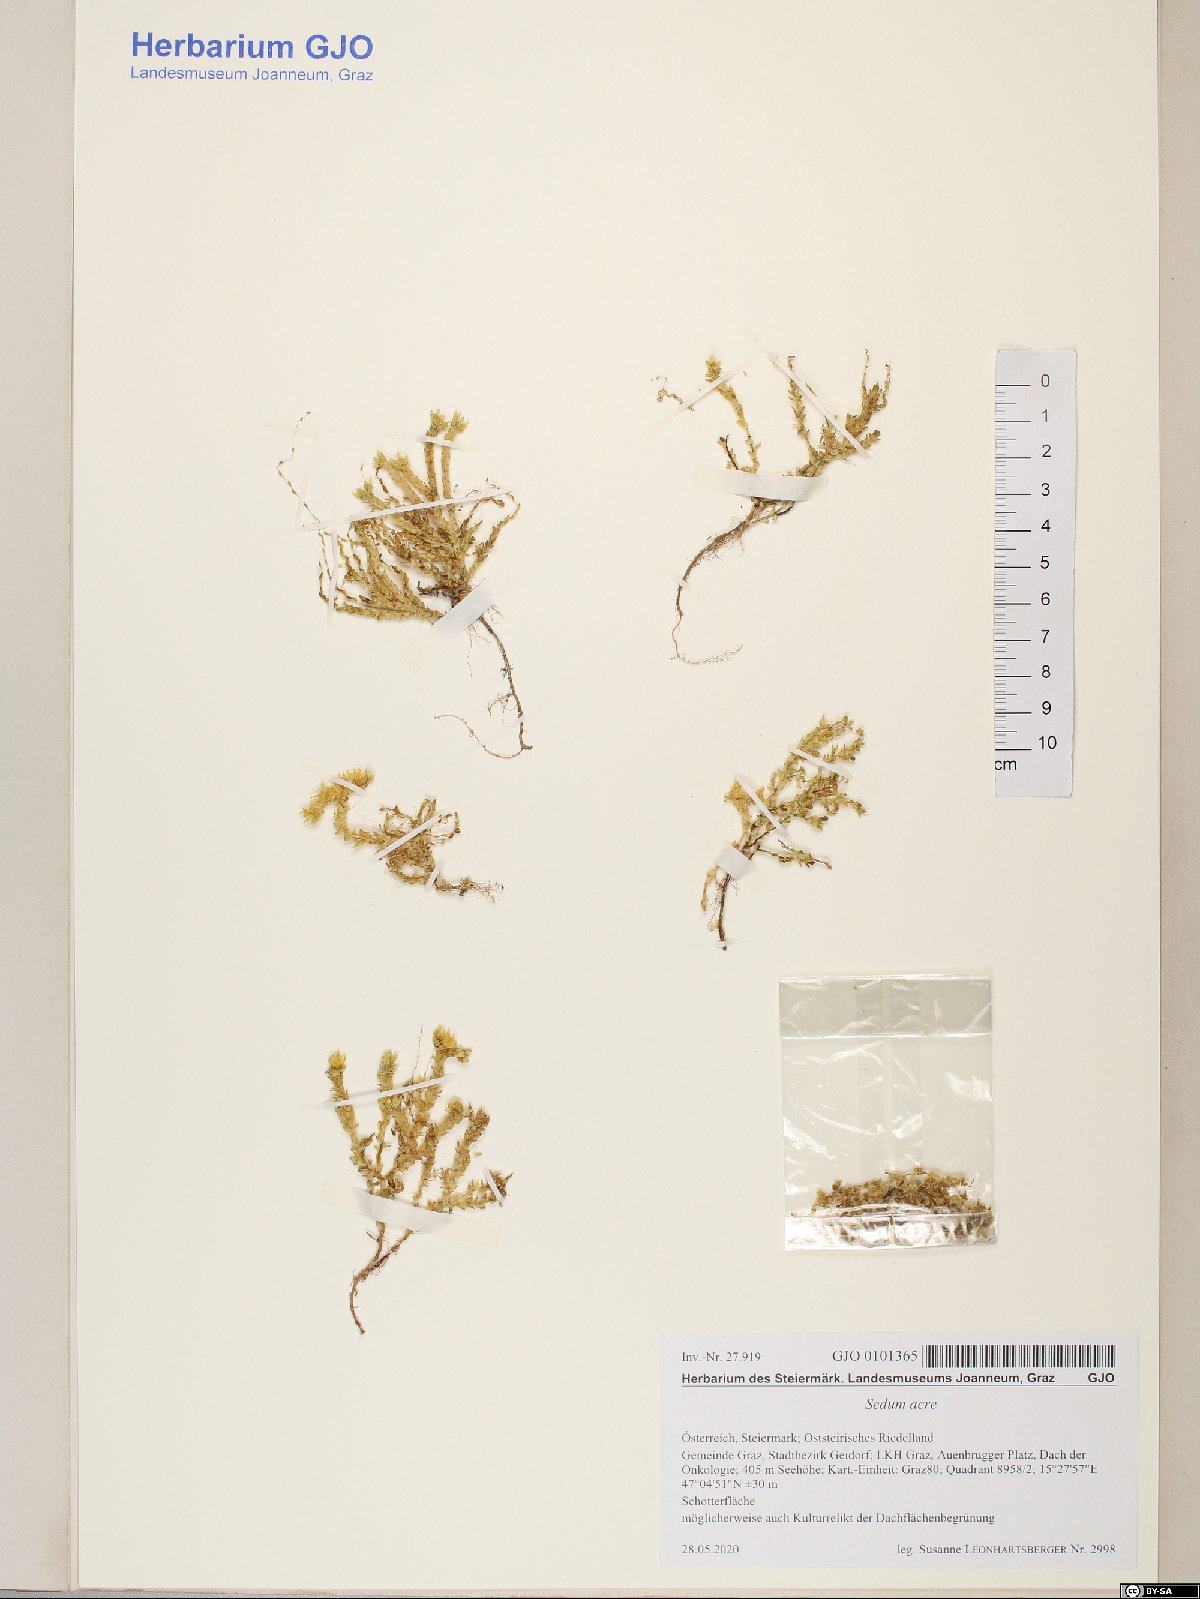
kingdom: Plantae
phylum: Tracheophyta
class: Magnoliopsida
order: Saxifragales
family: Crassulaceae
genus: Sedum
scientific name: Sedum acre
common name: Biting stonecrop
